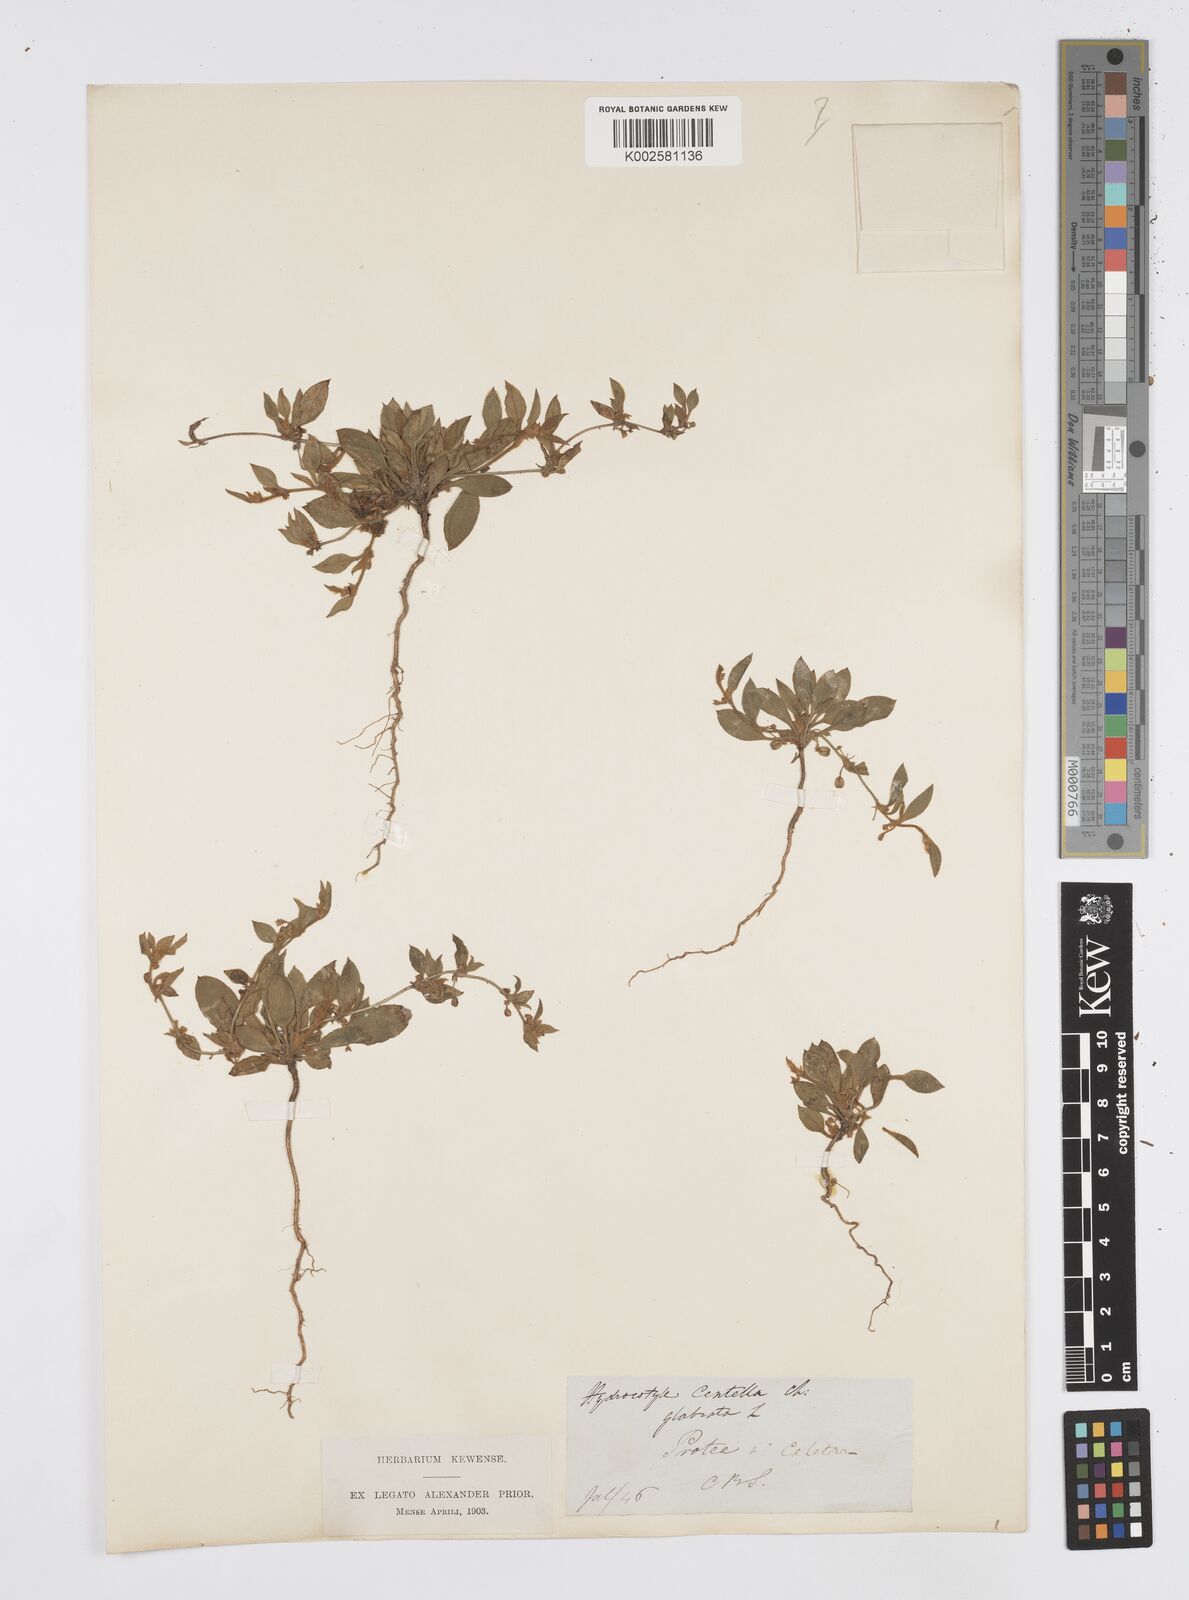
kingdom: Plantae
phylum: Tracheophyta
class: Magnoliopsida
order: Apiales
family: Apiaceae
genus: Centella
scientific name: Centella glabrata
